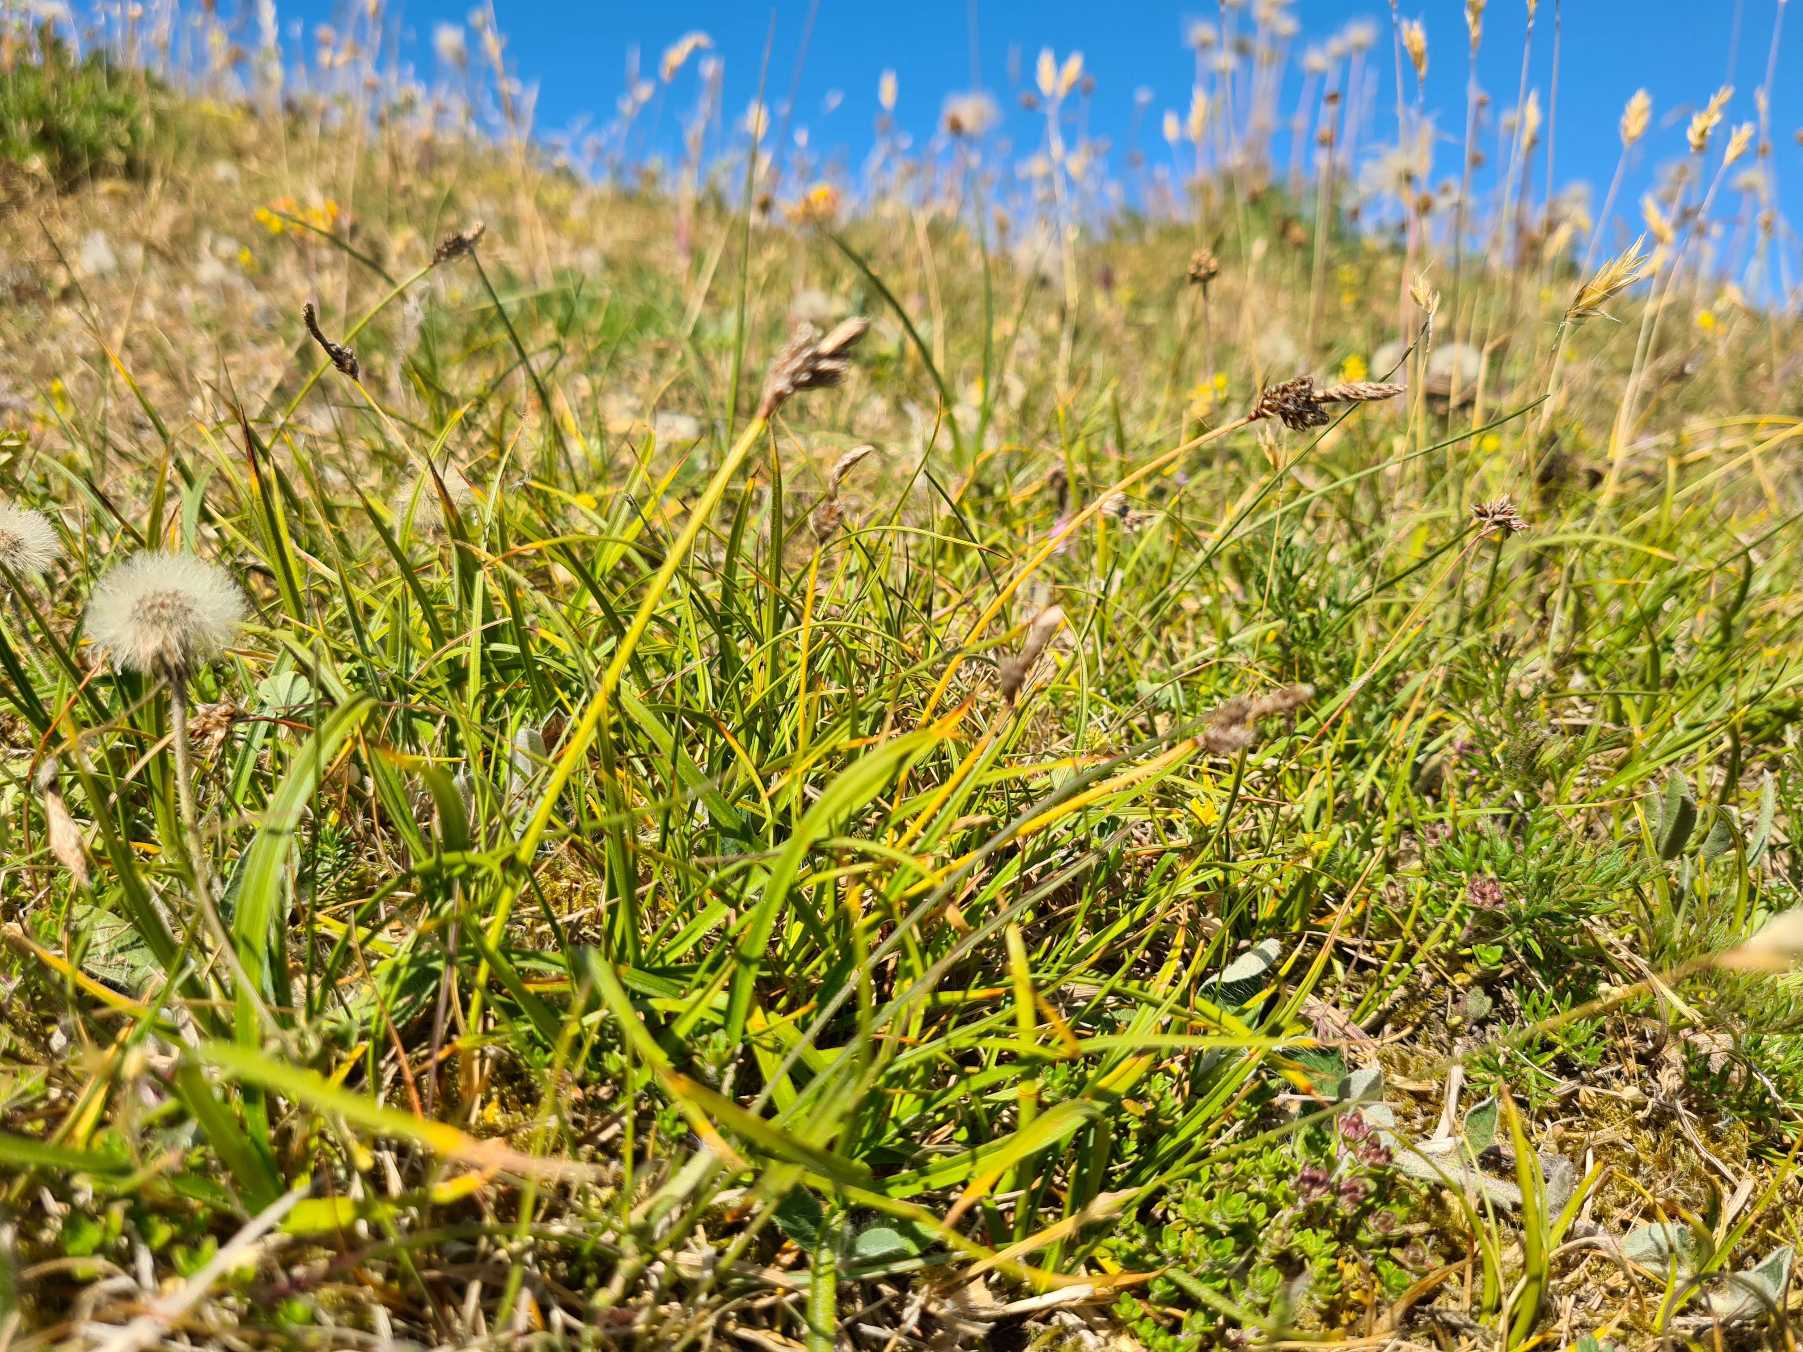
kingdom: Plantae
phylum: Tracheophyta
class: Liliopsida
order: Poales
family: Cyperaceae
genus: Carex
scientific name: Carex ericetorum
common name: Lyng-star
